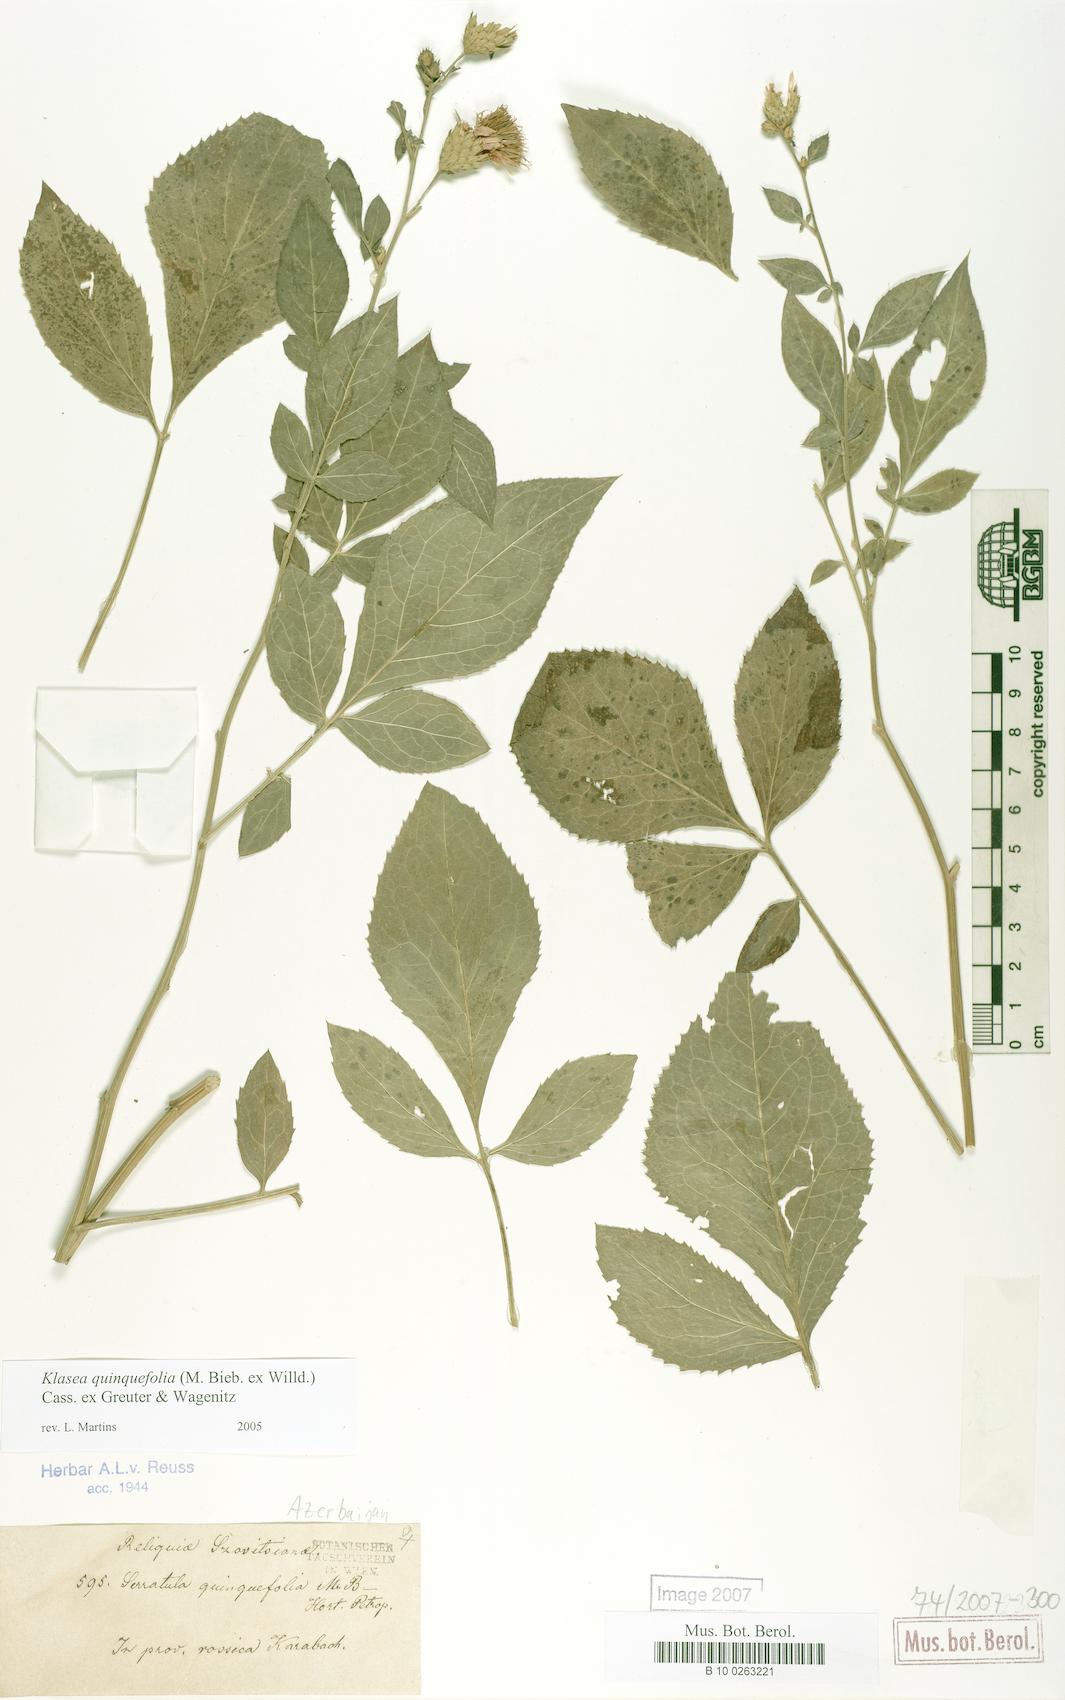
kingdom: Plantae
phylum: Tracheophyta
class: Magnoliopsida
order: Asterales
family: Asteraceae
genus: Klasea
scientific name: Klasea quinquefolia
